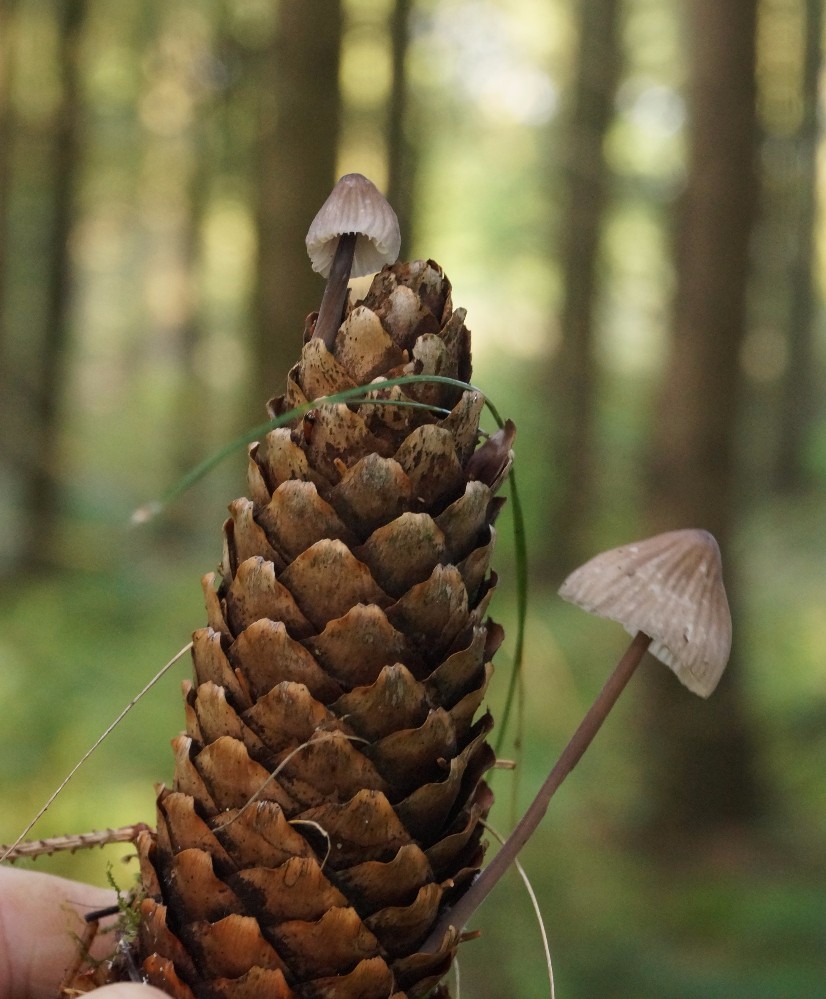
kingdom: Fungi
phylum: Basidiomycota
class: Agaricomycetes
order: Agaricales
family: Mycenaceae
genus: Mycena
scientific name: Mycena galopus
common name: hvidmælket huesvamp
